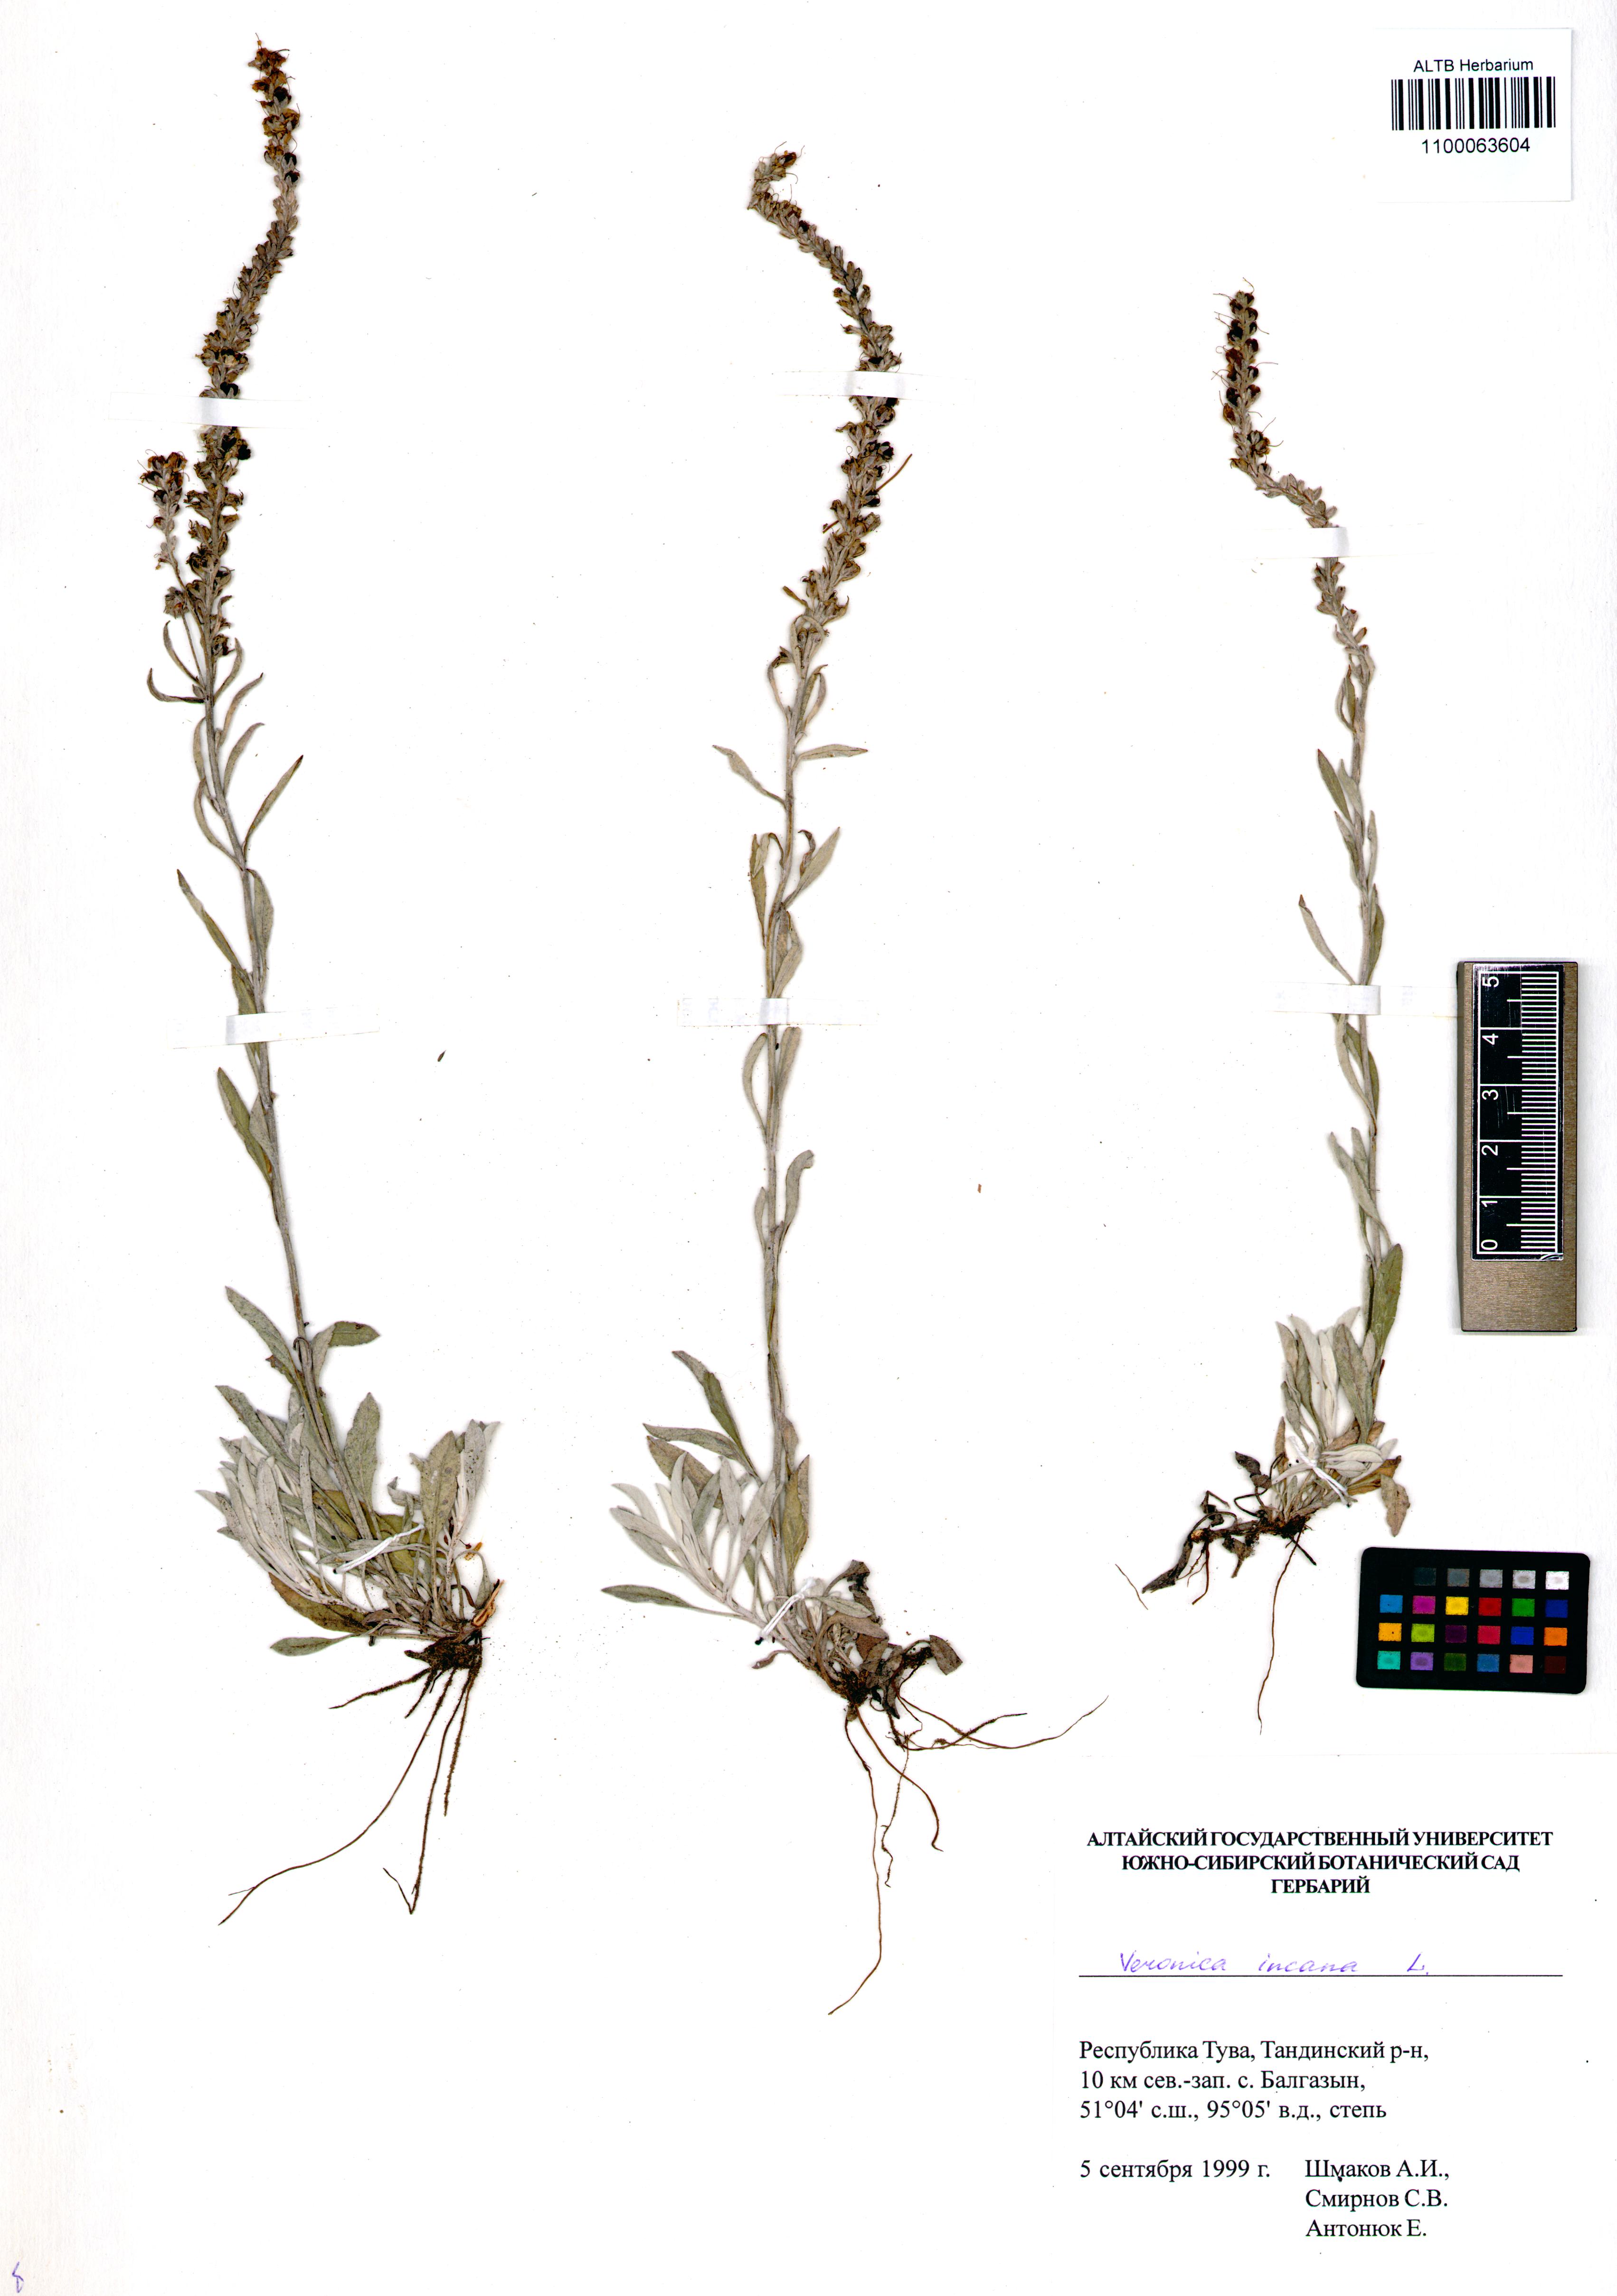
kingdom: Plantae
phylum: Tracheophyta
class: Magnoliopsida
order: Lamiales
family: Plantaginaceae
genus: Veronica
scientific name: Veronica incana
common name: Silver speedwell
